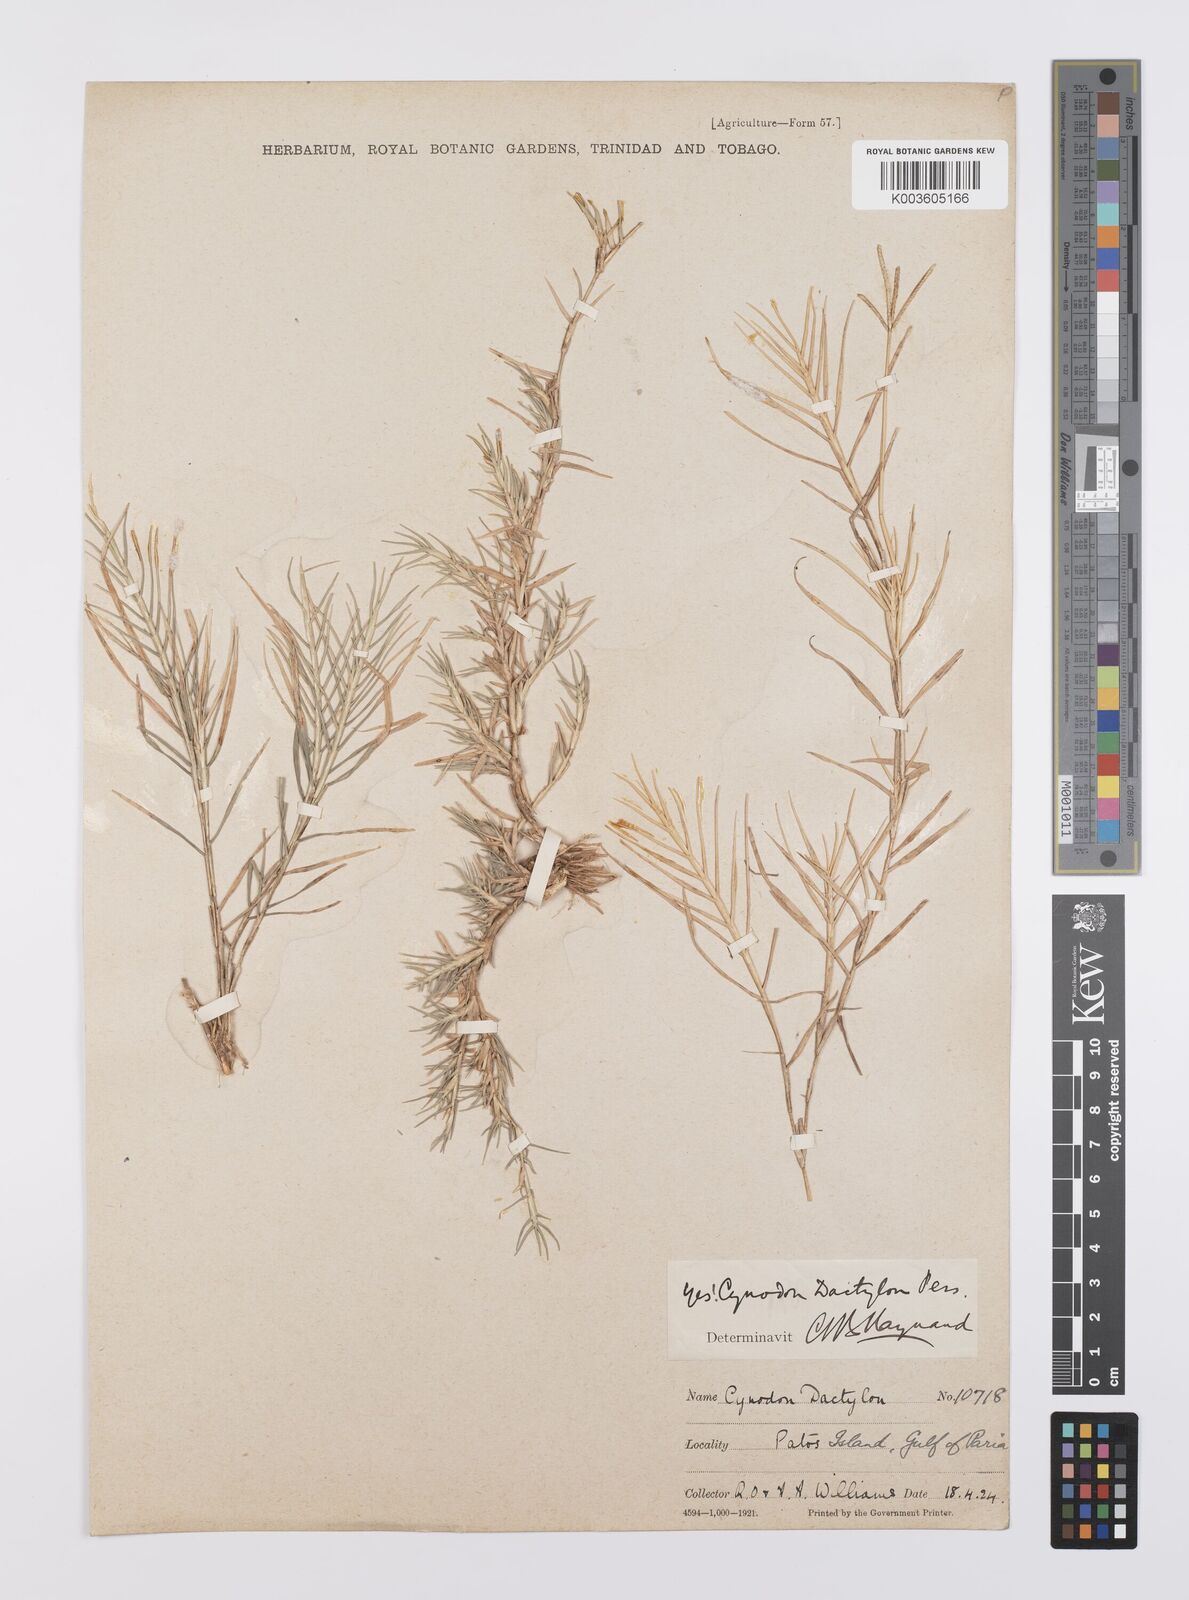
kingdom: Plantae
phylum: Tracheophyta
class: Liliopsida
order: Poales
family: Poaceae
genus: Cynodon
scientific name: Cynodon dactylon
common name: Bermuda grass
